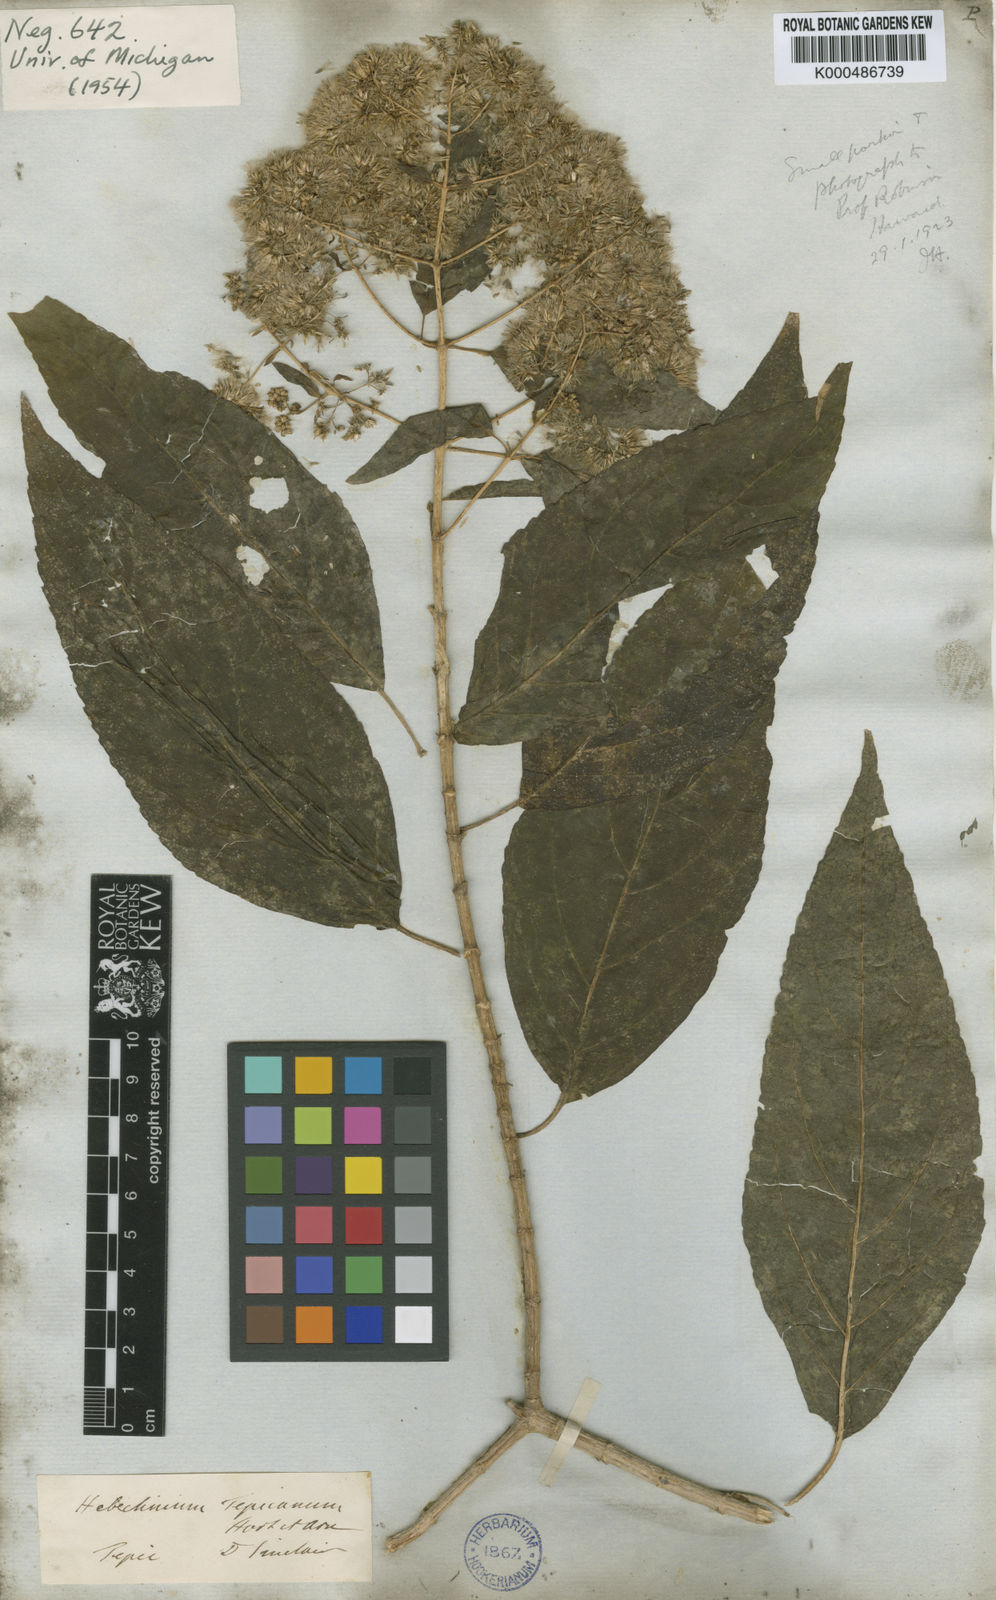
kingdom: Plantae
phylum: Tracheophyta
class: Magnoliopsida
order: Asterales
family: Asteraceae
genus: Critonia
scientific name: Critonia
